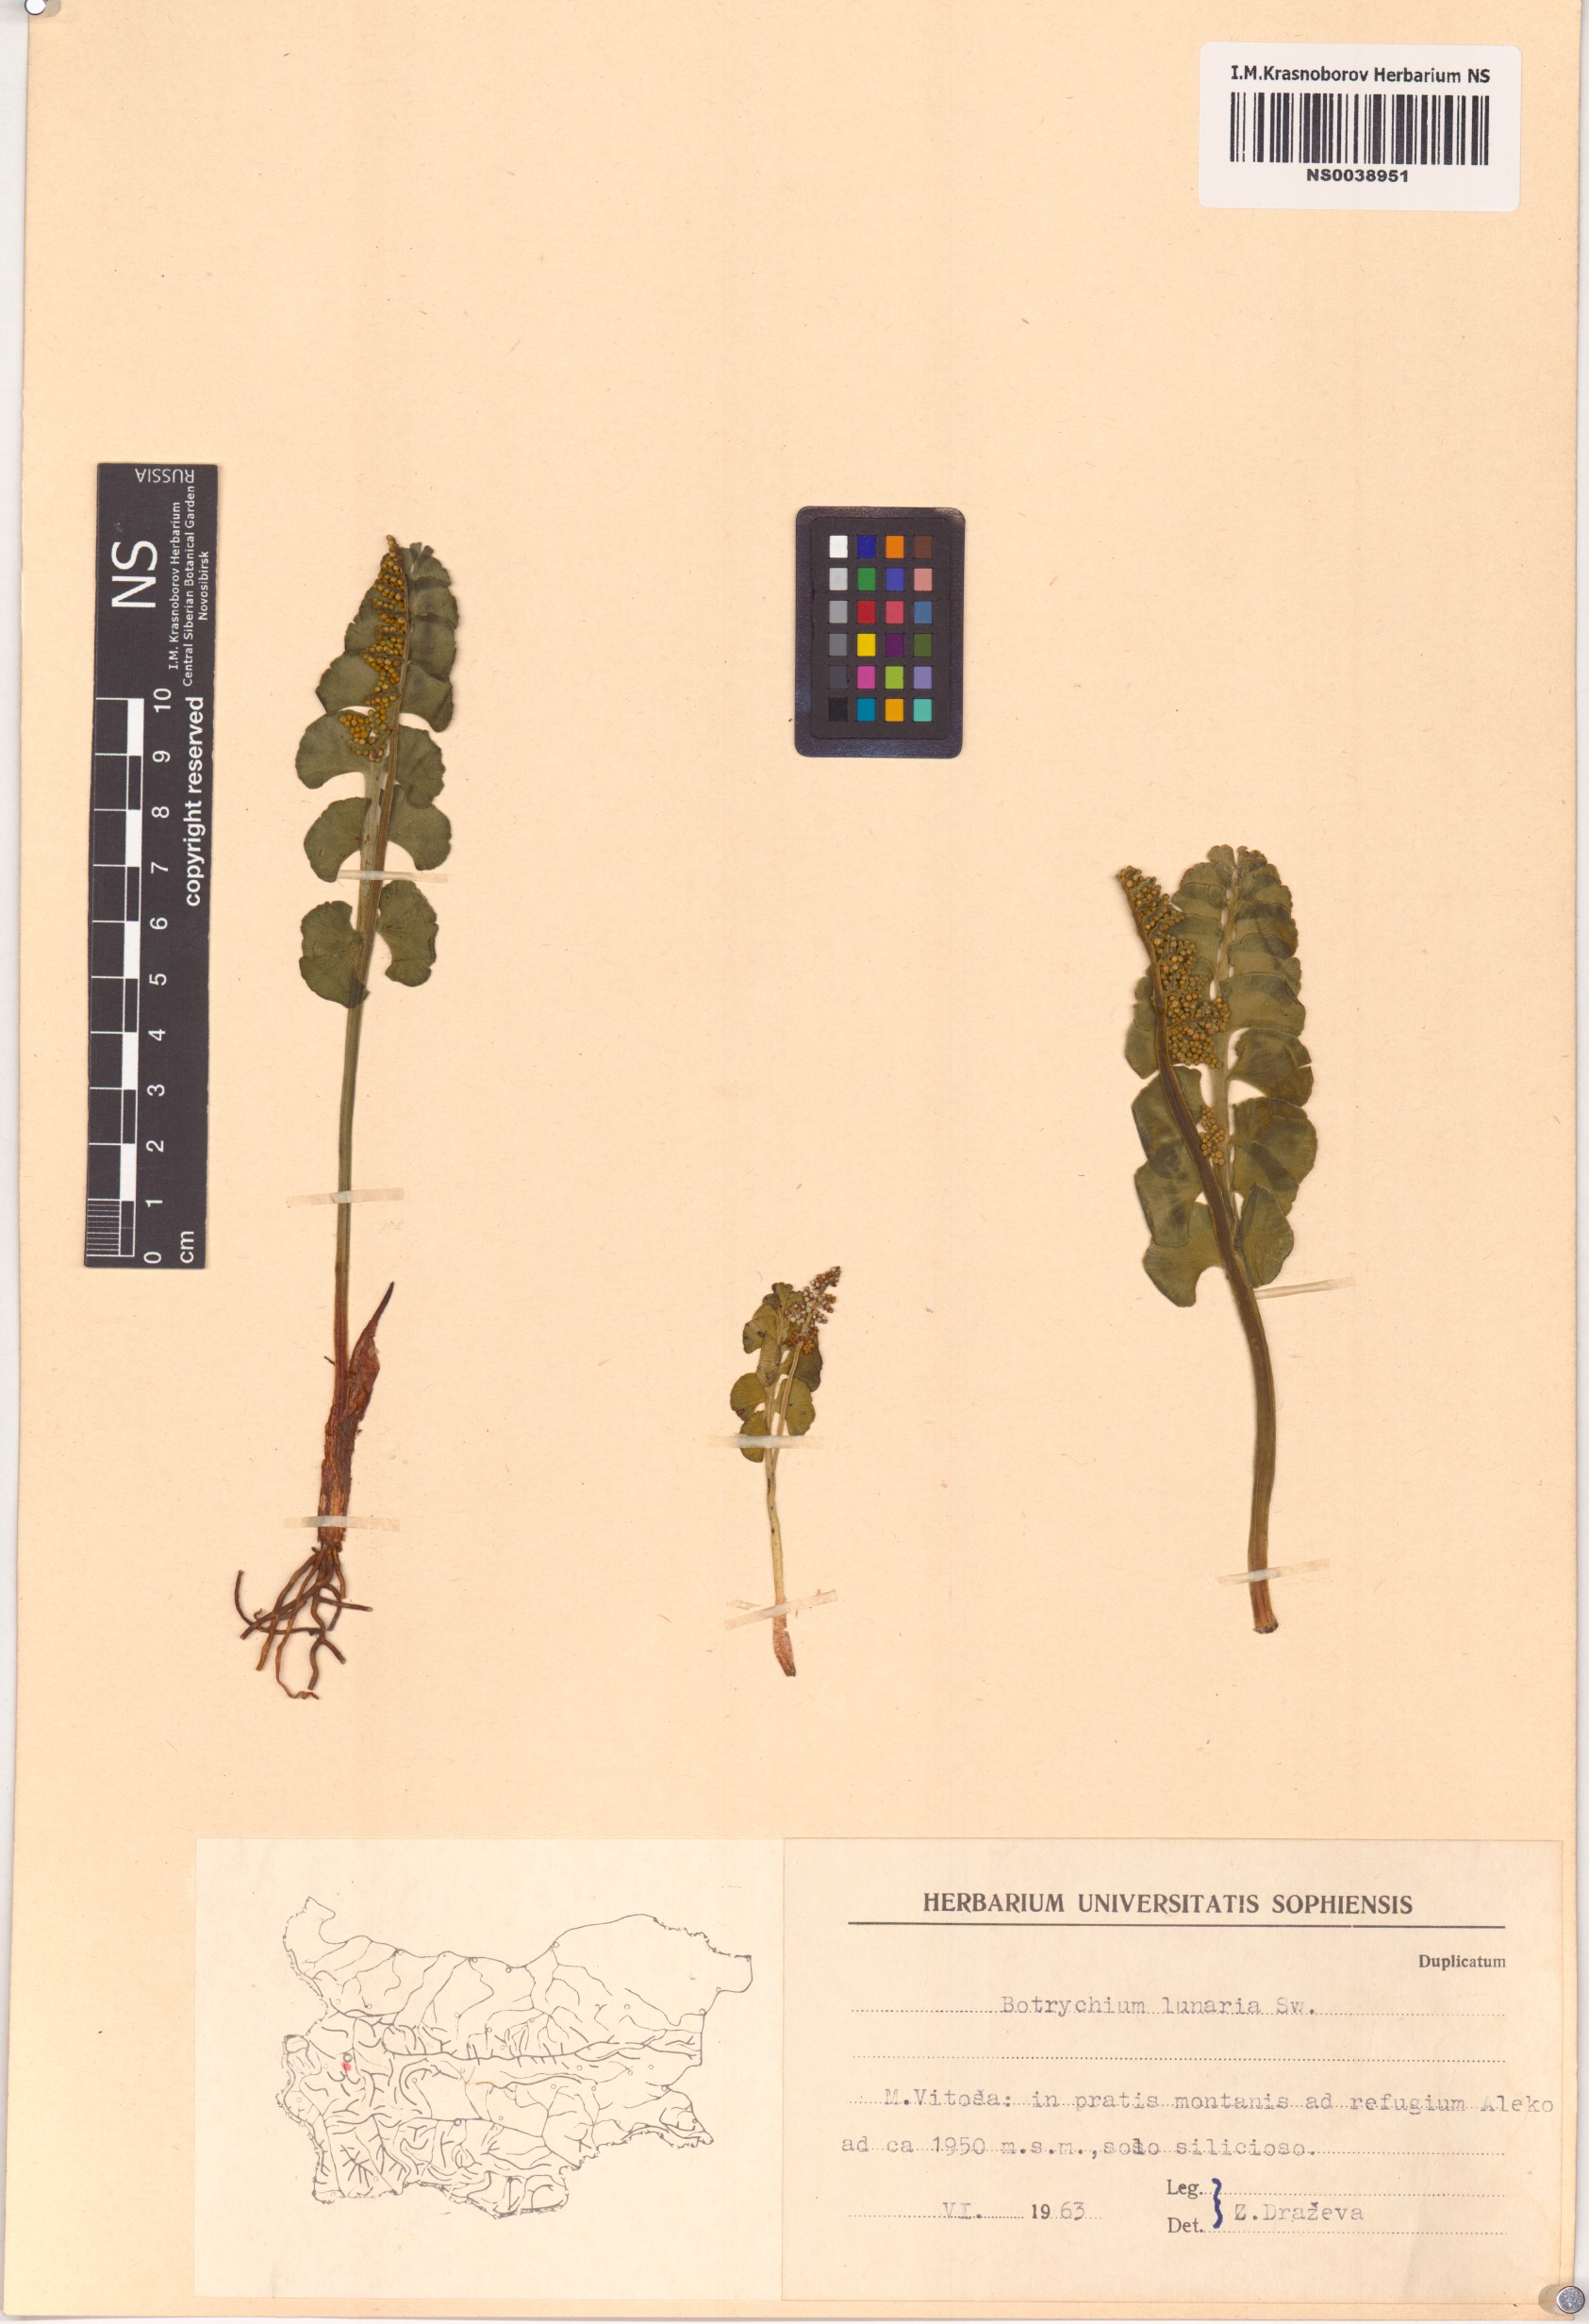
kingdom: Plantae
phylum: Tracheophyta
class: Polypodiopsida
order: Ophioglossales
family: Ophioglossaceae
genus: Botrychium
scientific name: Botrychium lunaria
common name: Moonwort
